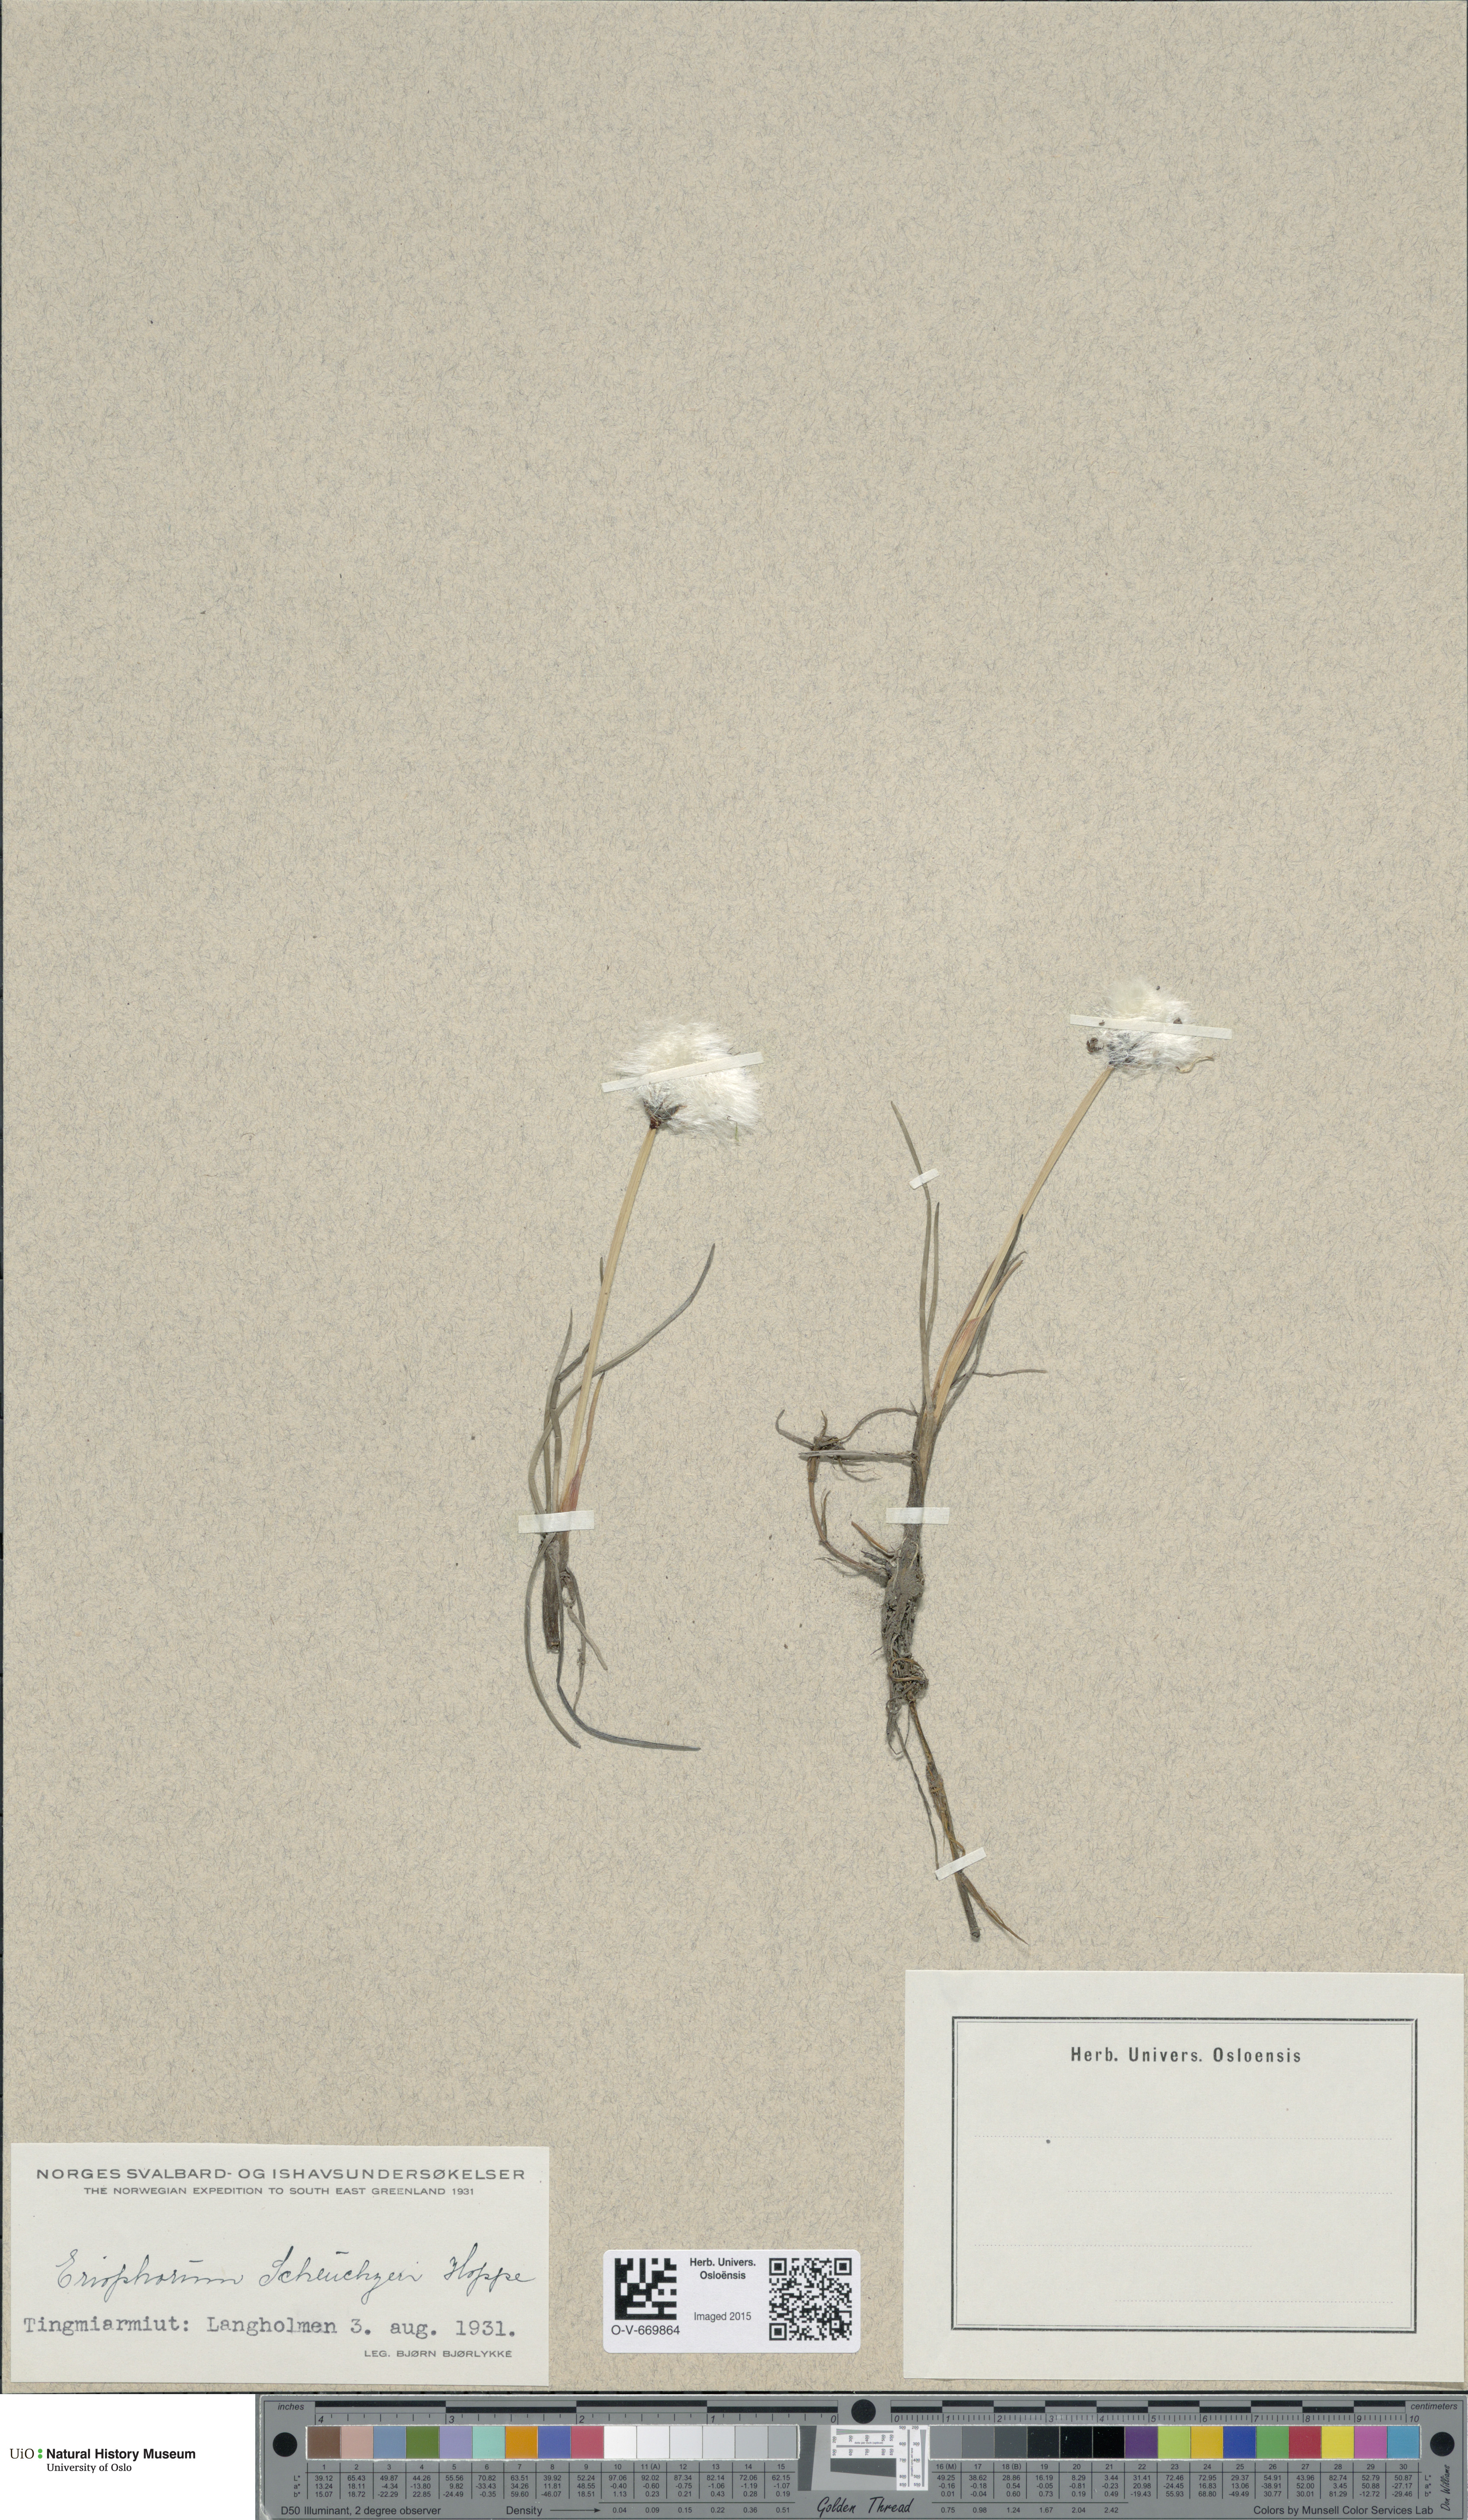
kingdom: Plantae
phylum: Tracheophyta
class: Liliopsida
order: Poales
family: Cyperaceae
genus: Eriophorum
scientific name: Eriophorum scheuchzeri
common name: Scheuchzer's cottongrass
